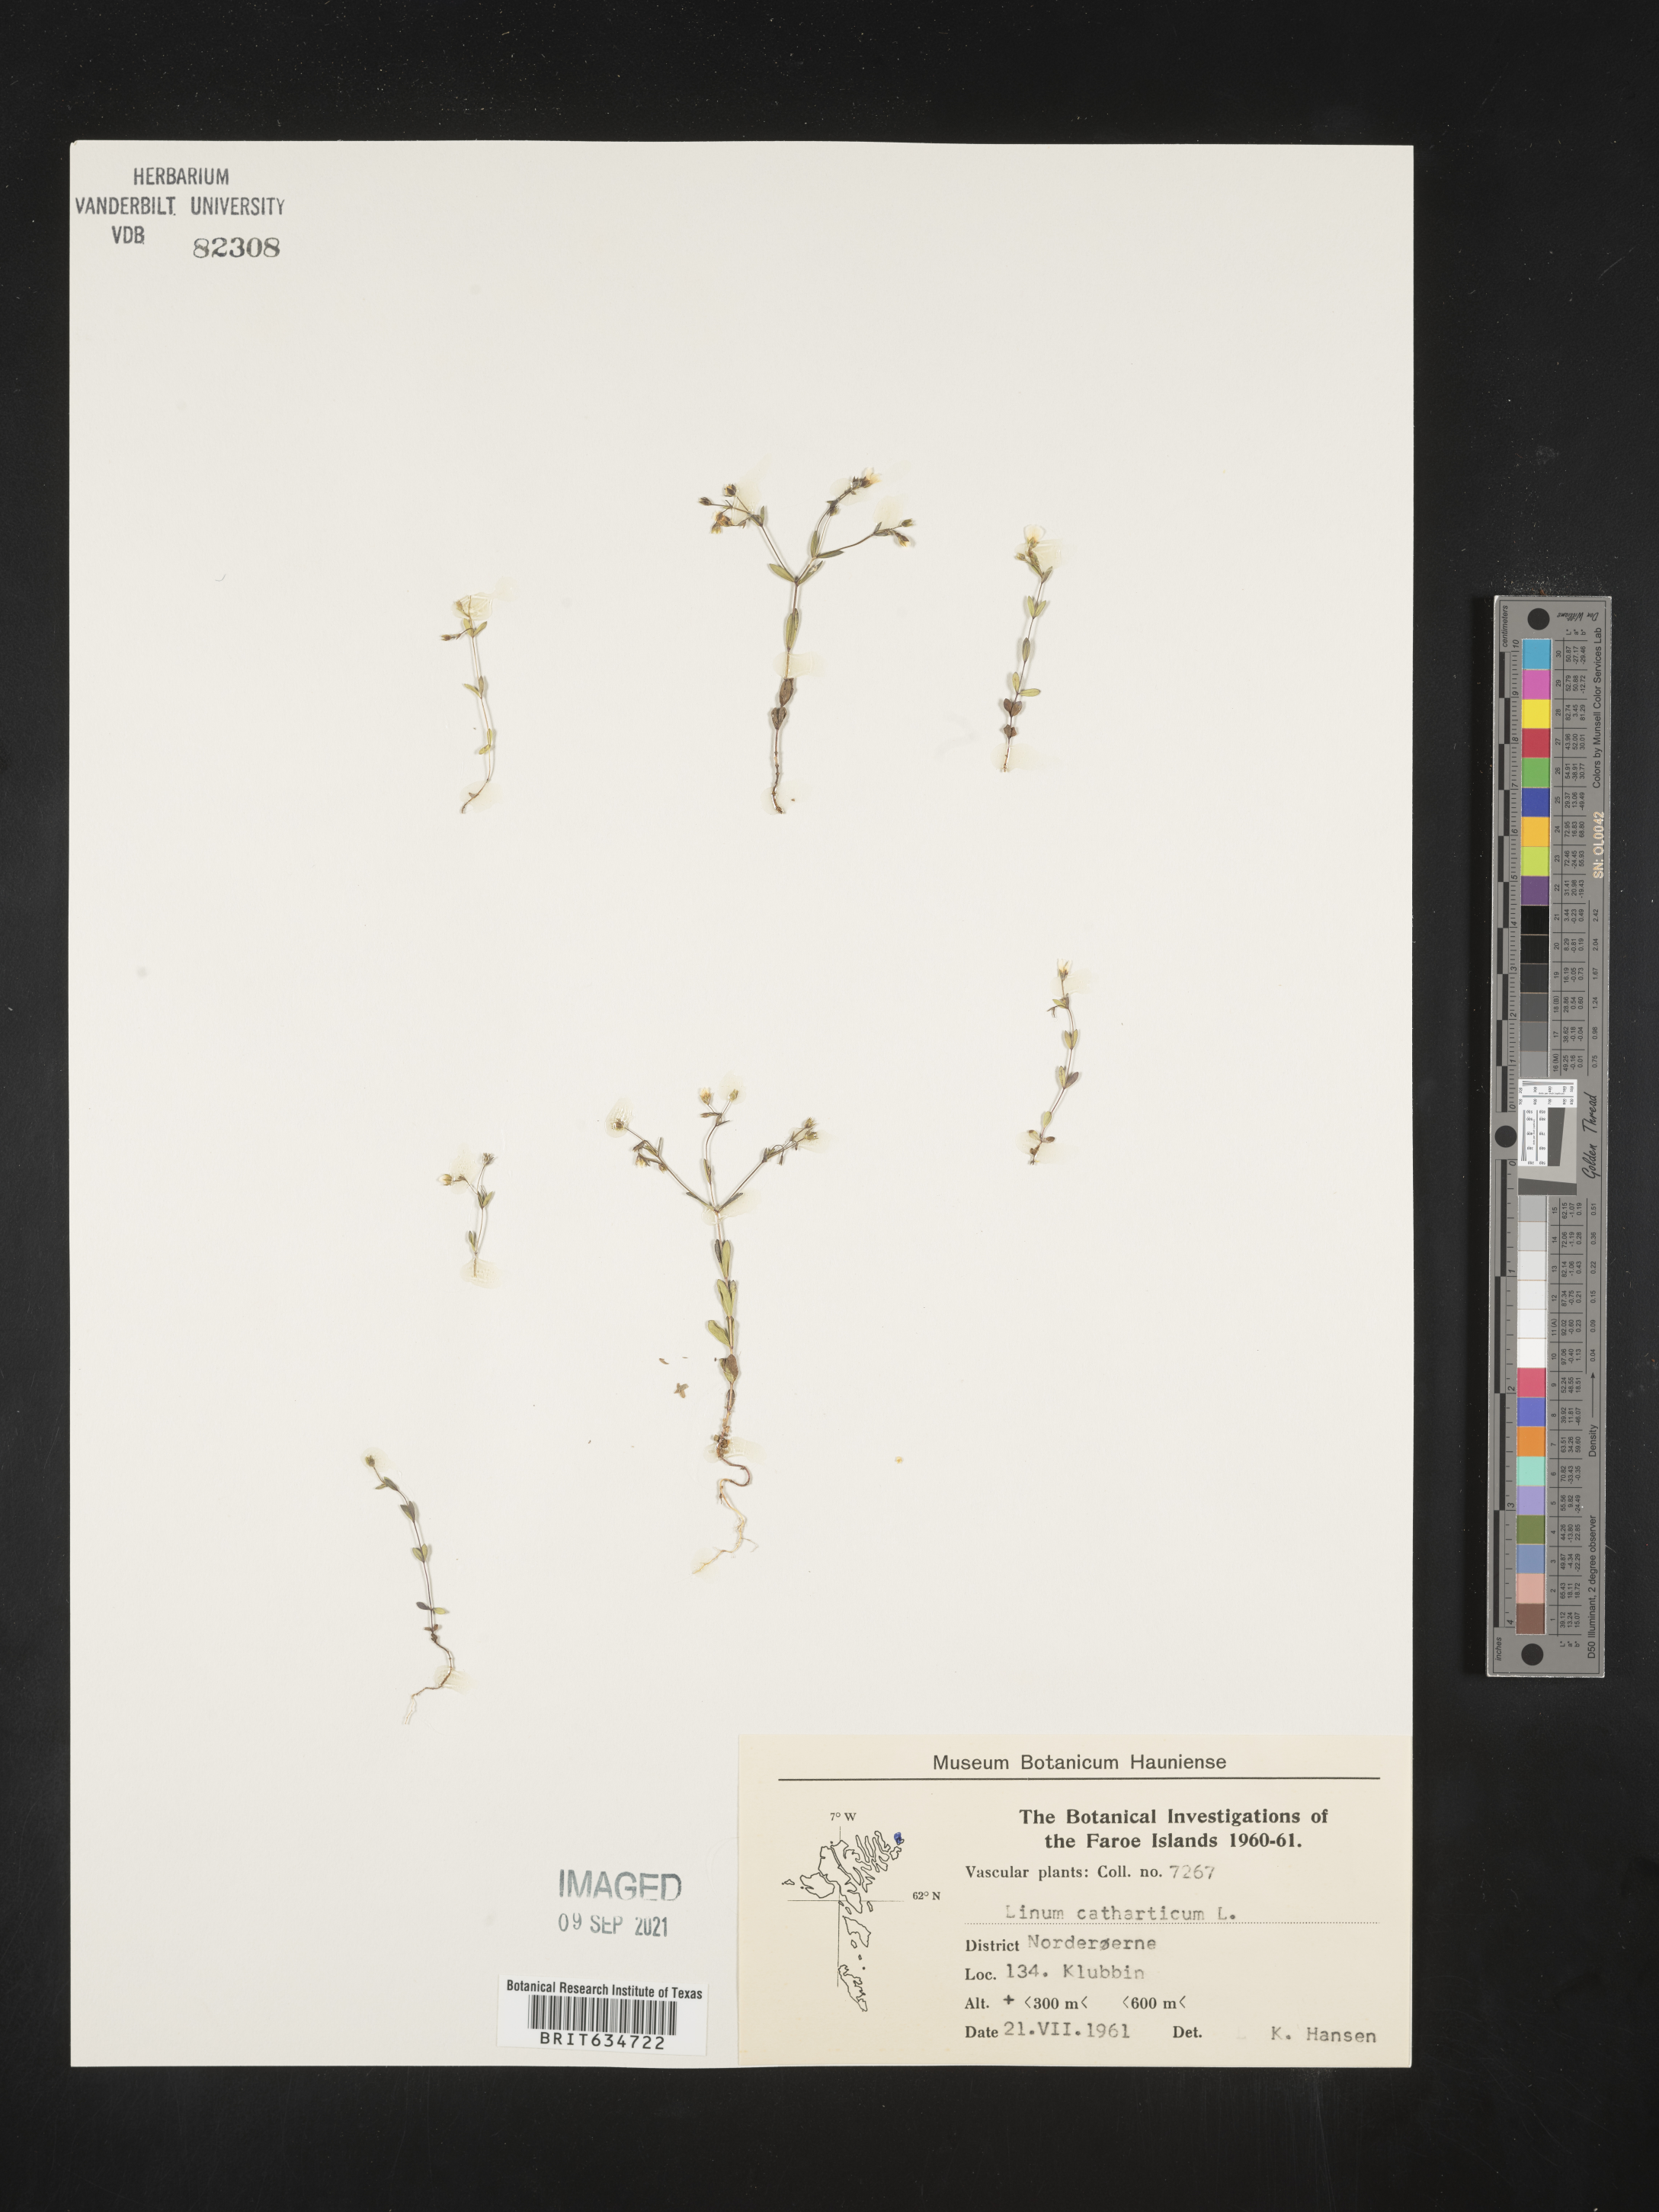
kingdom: Plantae
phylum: Tracheophyta
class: Magnoliopsida
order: Malpighiales
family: Linaceae
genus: Linum
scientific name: Linum
